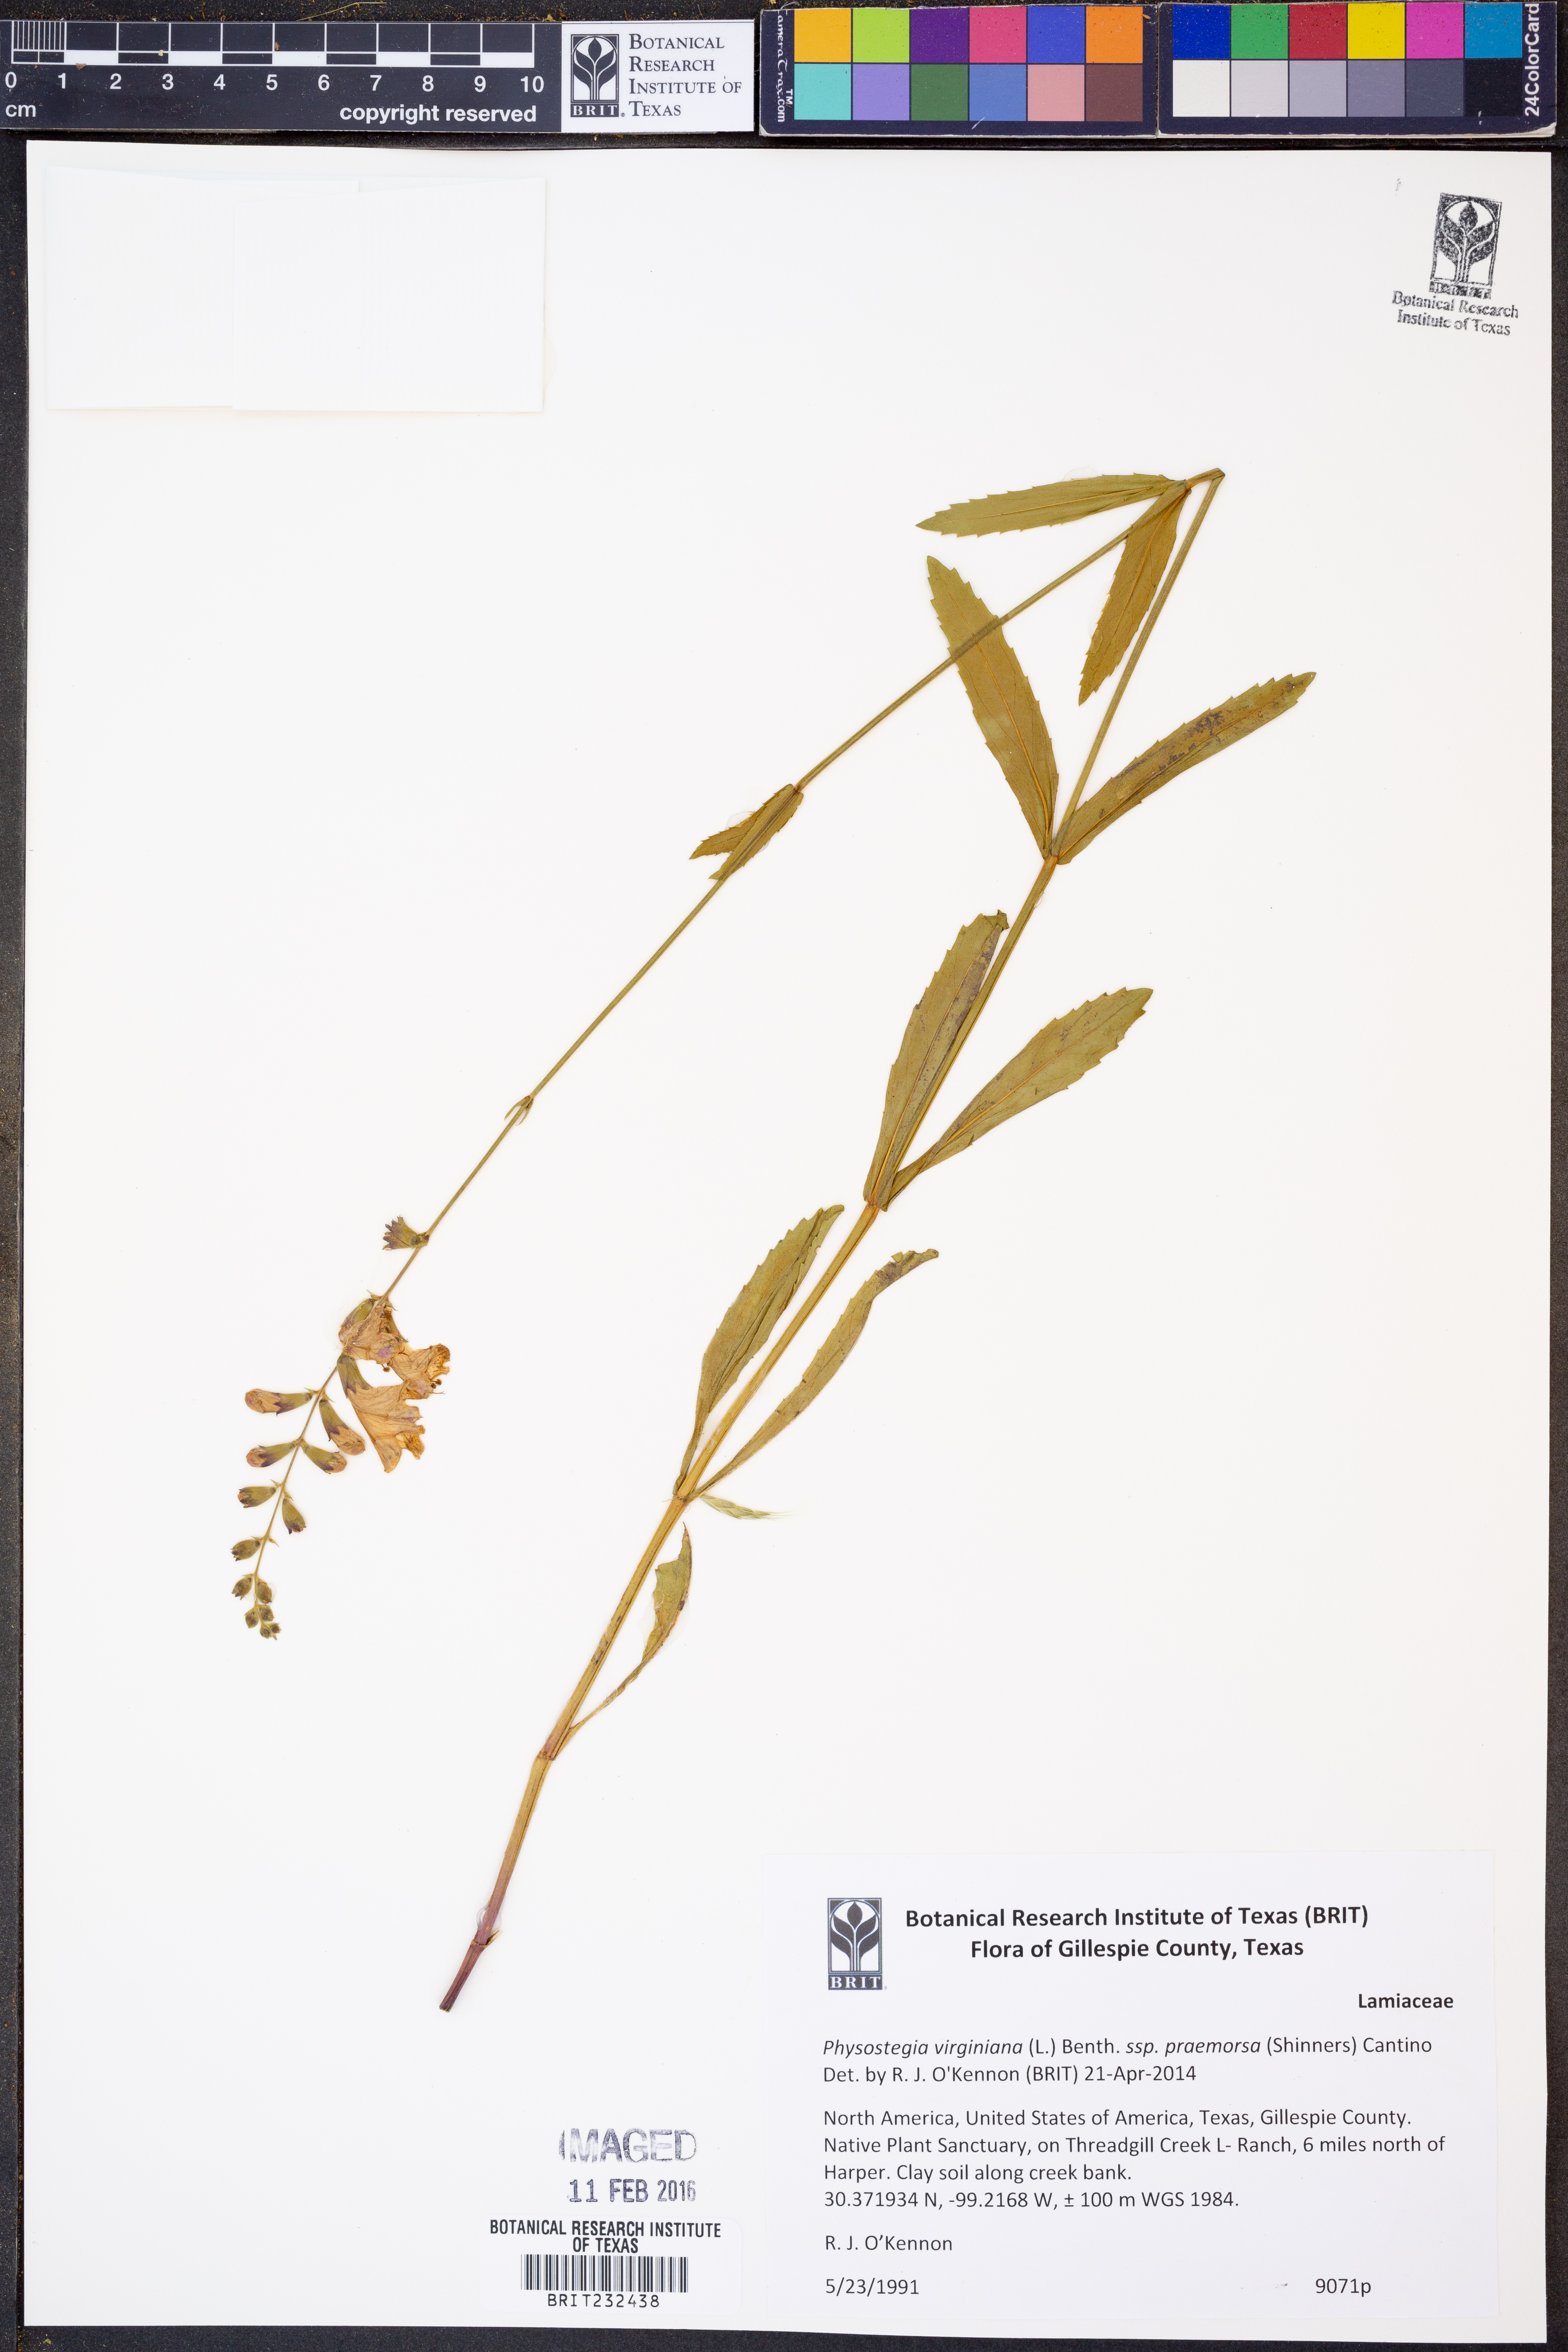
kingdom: Plantae
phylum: Tracheophyta
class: Magnoliopsida
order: Lamiales
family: Lamiaceae
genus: Physostegia
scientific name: Physostegia virginiana
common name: Obedient-plant
